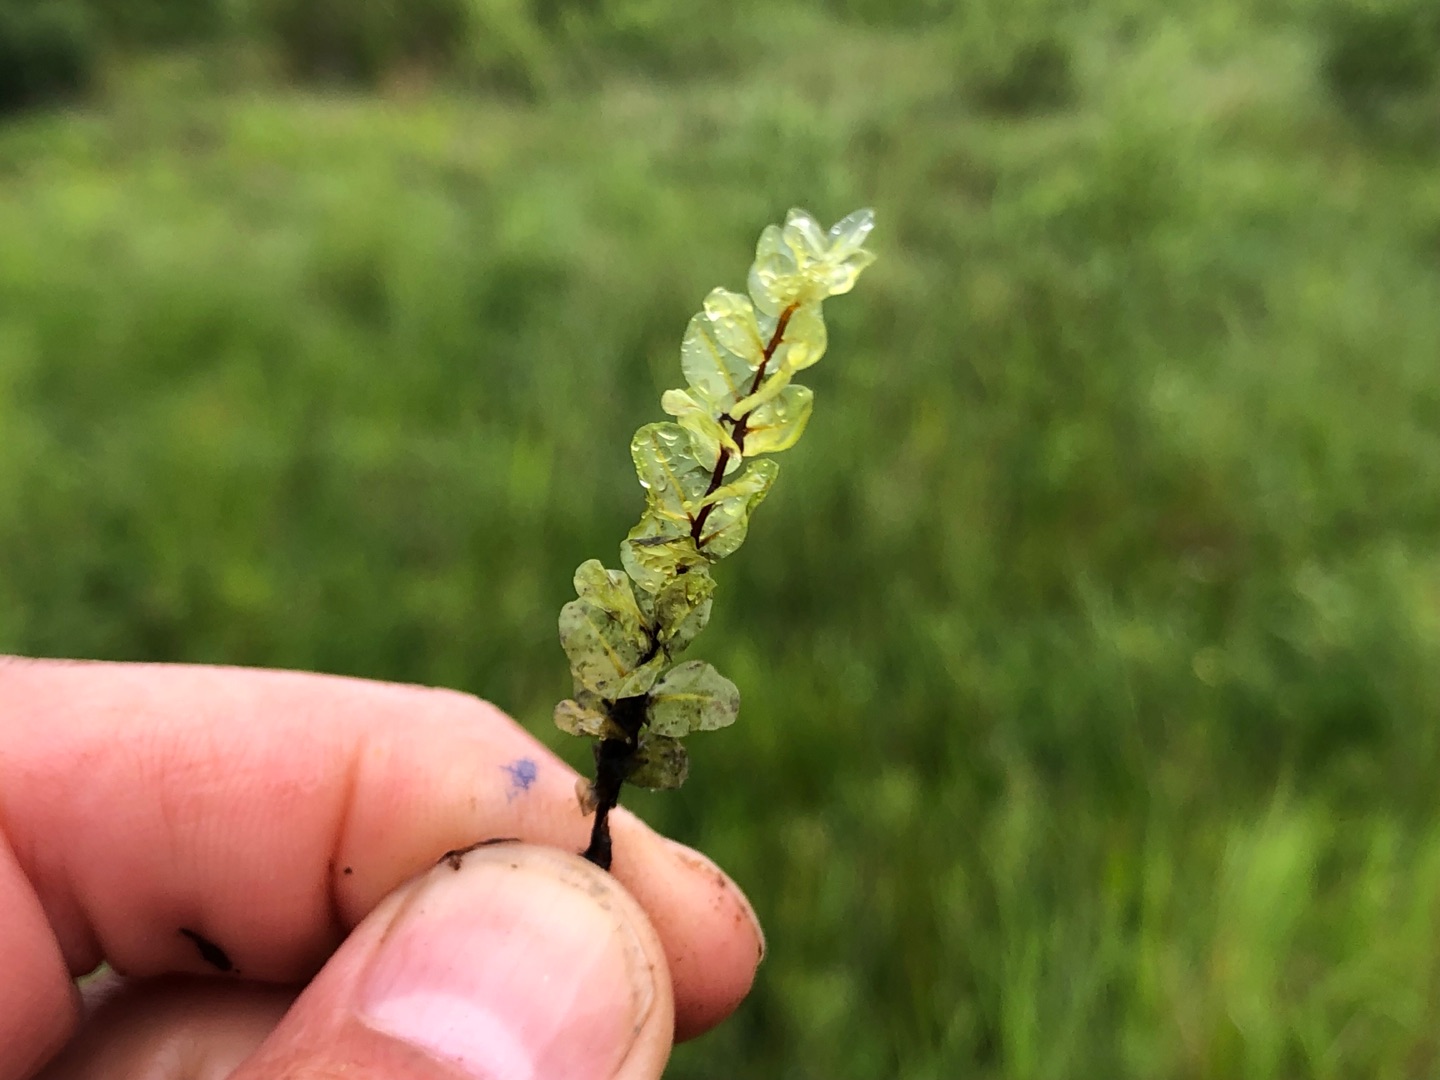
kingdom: Plantae
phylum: Bryophyta
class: Bryopsida
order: Bryales
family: Mniaceae
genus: Pseudobryum
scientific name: Pseudobryum cinclidioides
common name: Sortstænglet sumpmos
